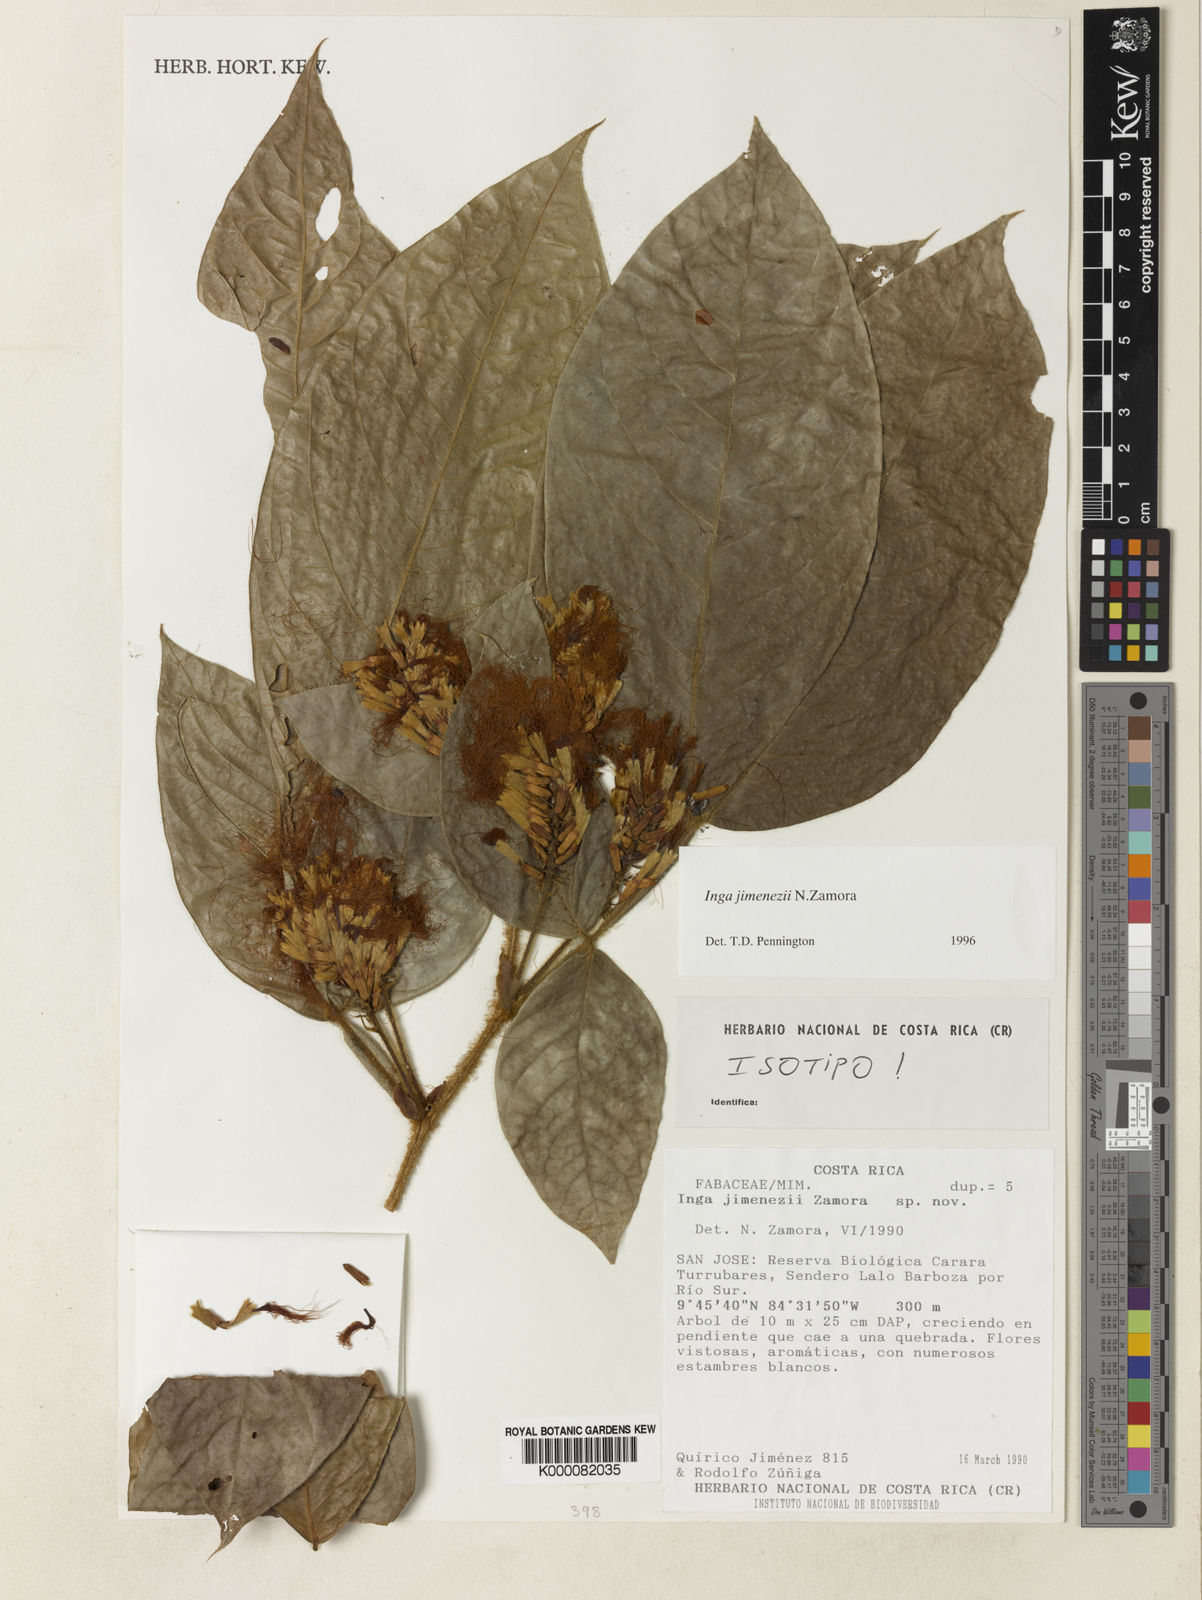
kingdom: Plantae
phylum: Tracheophyta
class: Magnoliopsida
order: Fabales
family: Fabaceae
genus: Inga
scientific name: Inga jimenezii
